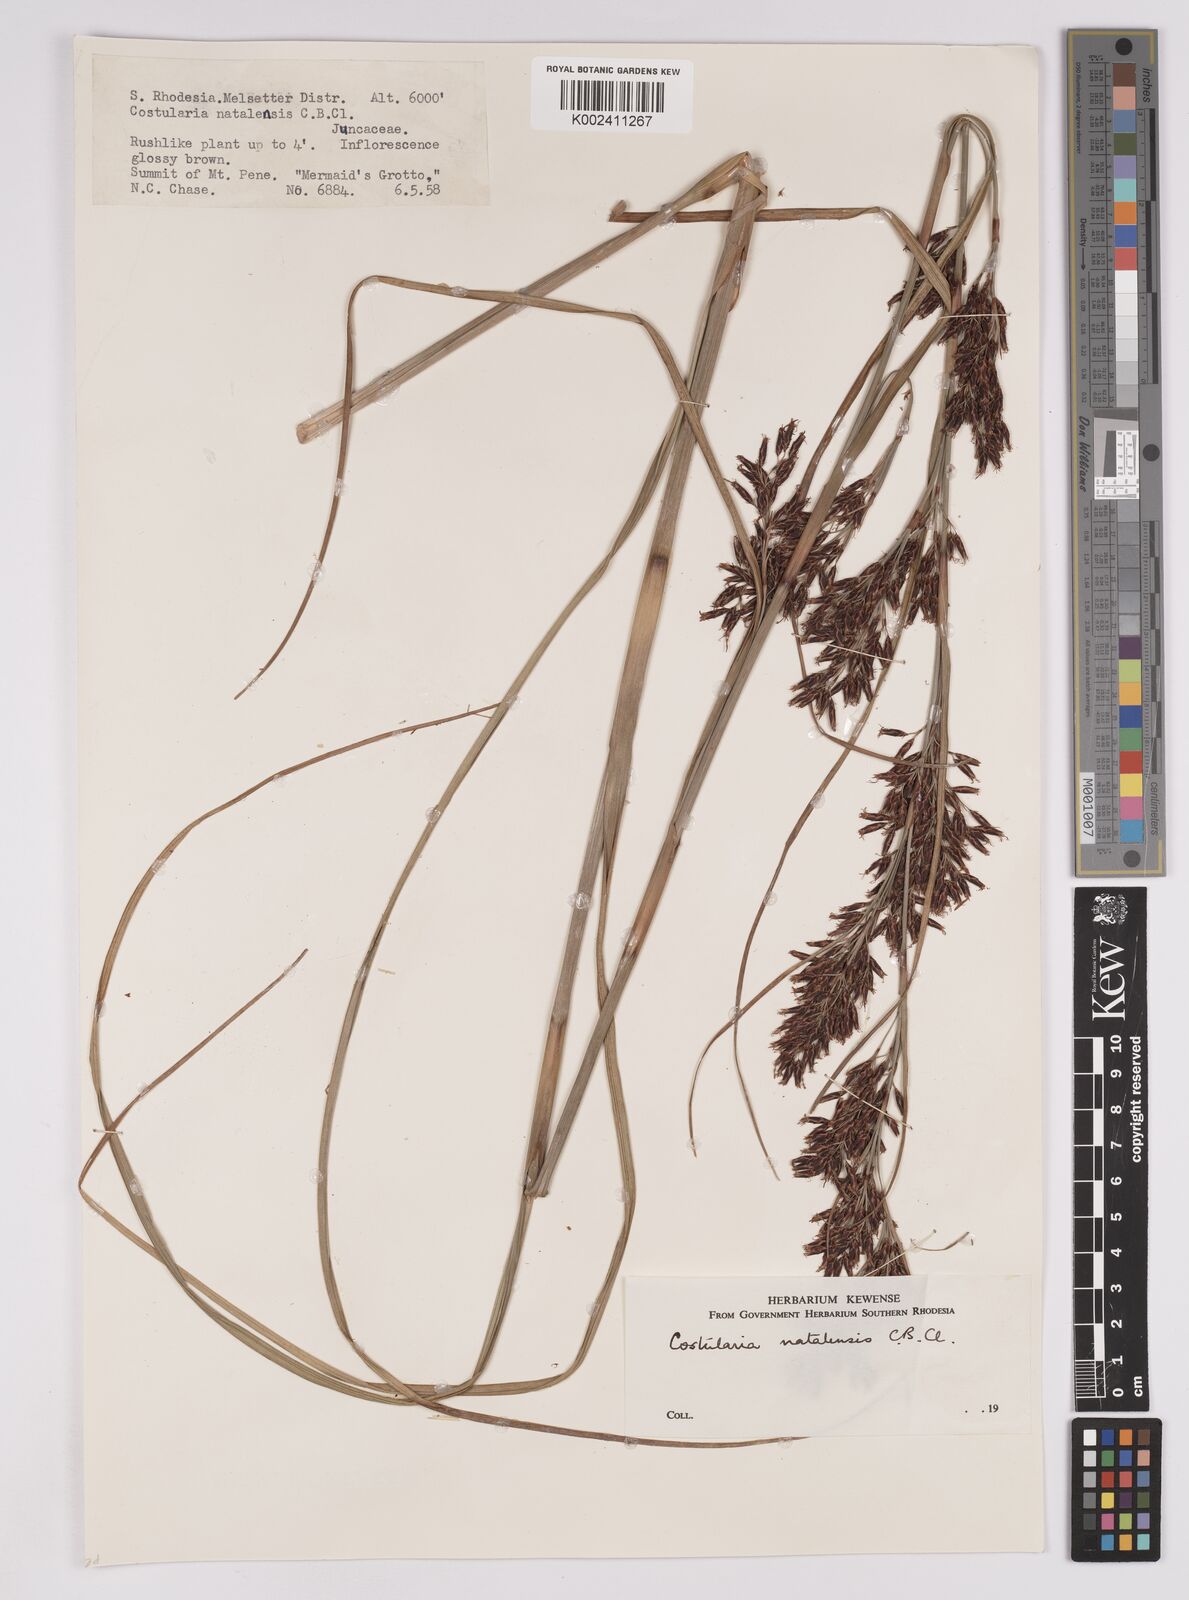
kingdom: Plantae
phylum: Tracheophyta
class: Liliopsida
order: Poales
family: Cyperaceae
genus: Costularia
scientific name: Costularia natalensis
